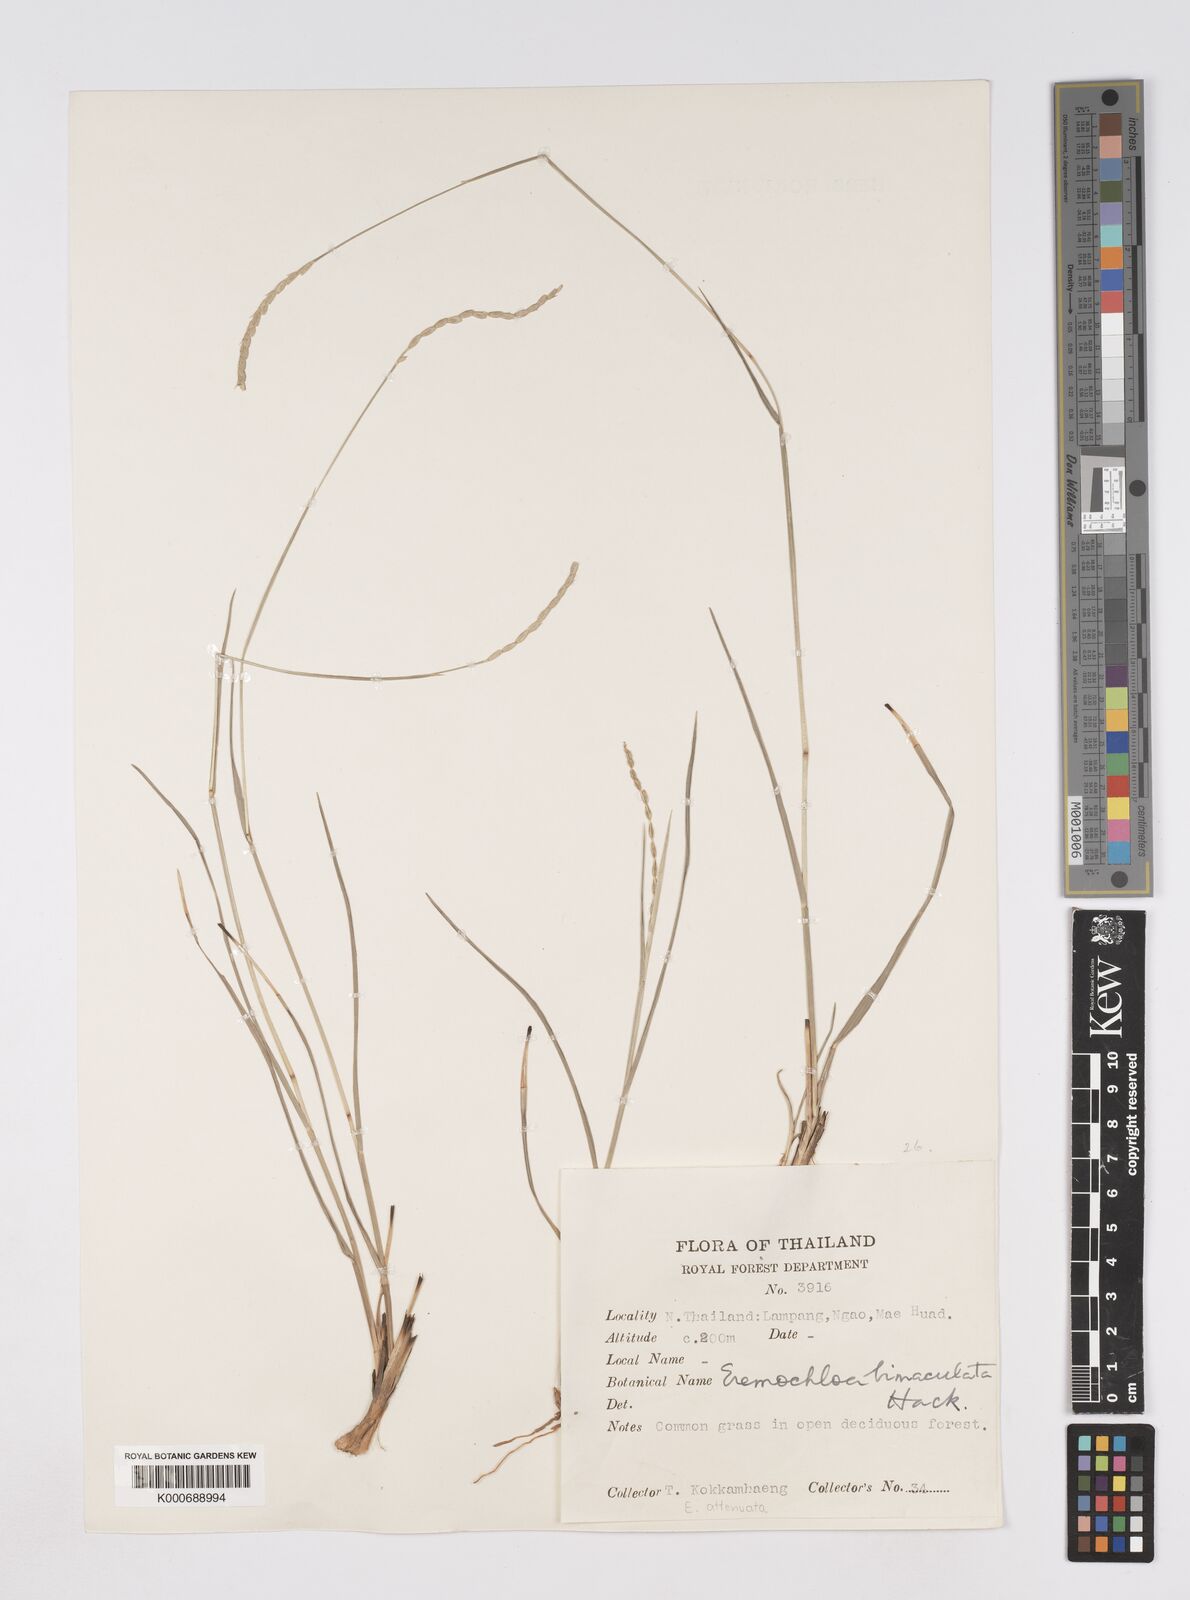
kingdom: Plantae
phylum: Tracheophyta
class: Liliopsida
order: Poales
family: Poaceae
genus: Eremochloa
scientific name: Eremochloa attenuata
